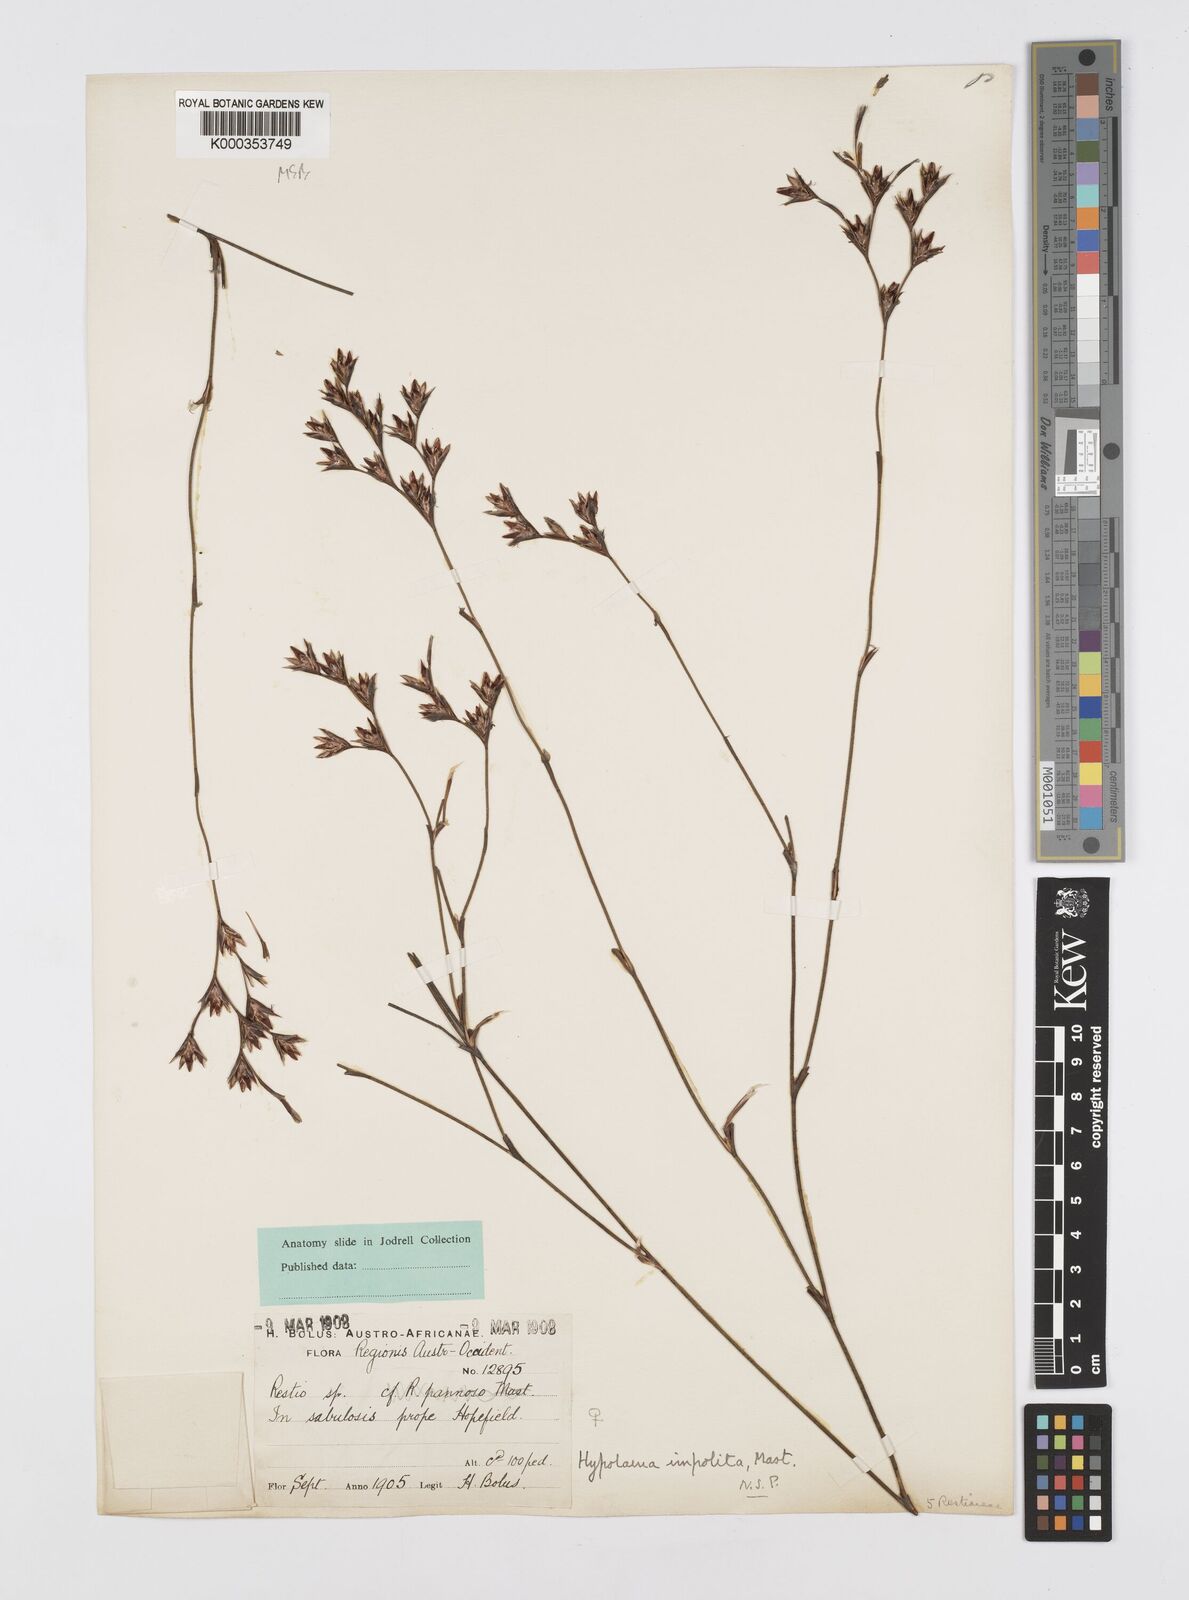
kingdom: Plantae
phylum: Tracheophyta
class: Liliopsida
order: Poales
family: Restionaceae
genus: Restio
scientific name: Restio impolitus
